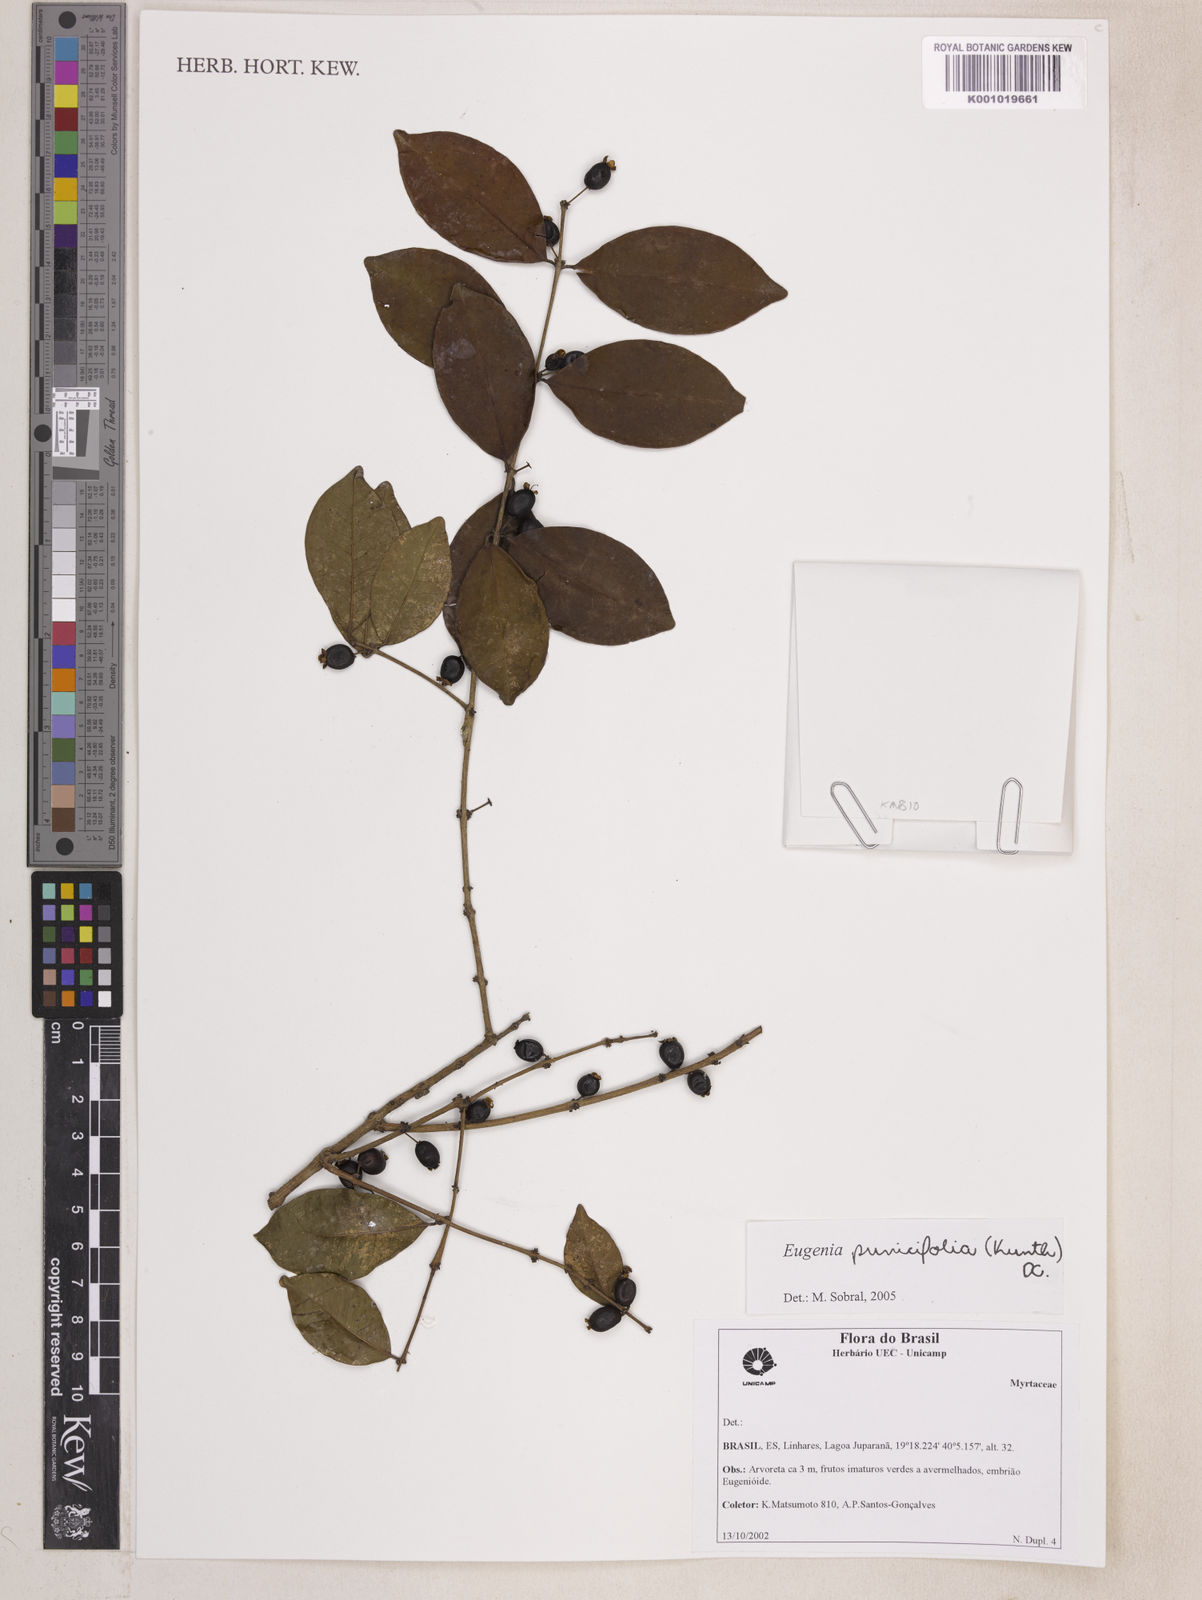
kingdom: Plantae
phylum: Tracheophyta
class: Magnoliopsida
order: Myrtales
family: Myrtaceae
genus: Eugenia
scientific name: Eugenia punicifolia
